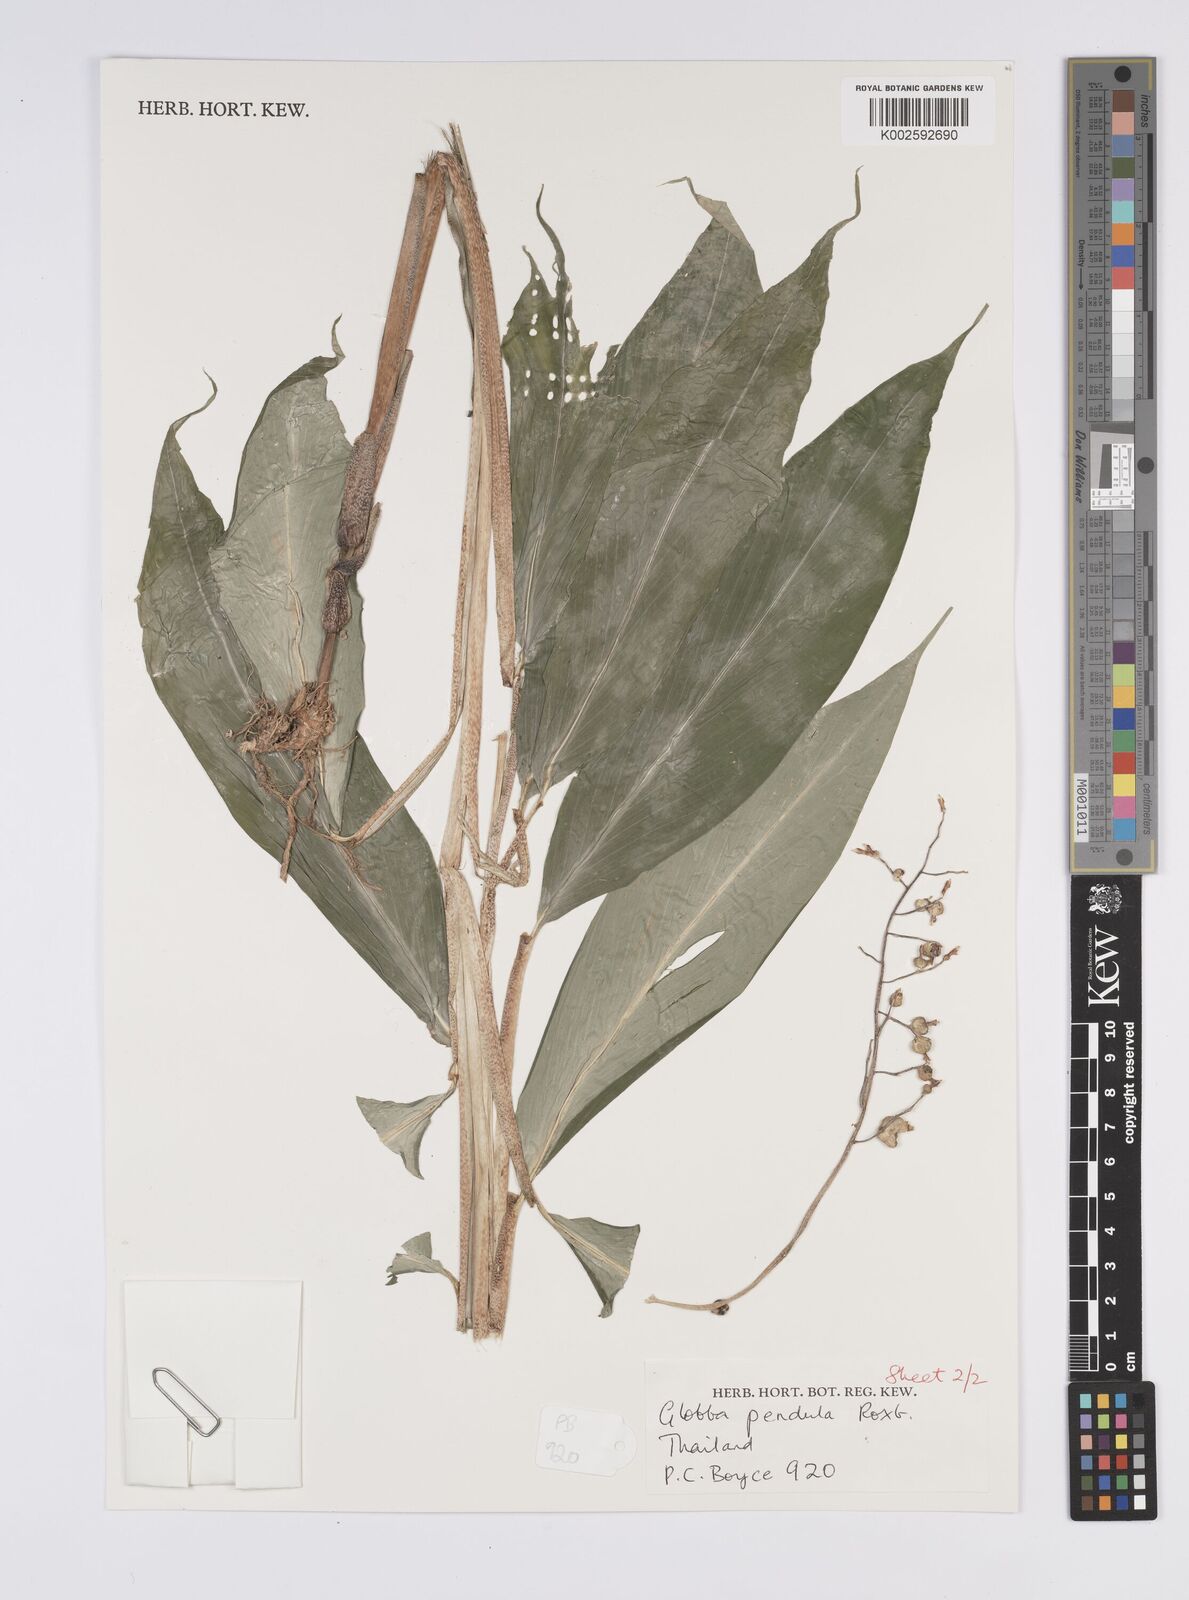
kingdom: Plantae
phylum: Tracheophyta
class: Liliopsida
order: Zingiberales
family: Zingiberaceae
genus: Globba
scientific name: Globba pendula
